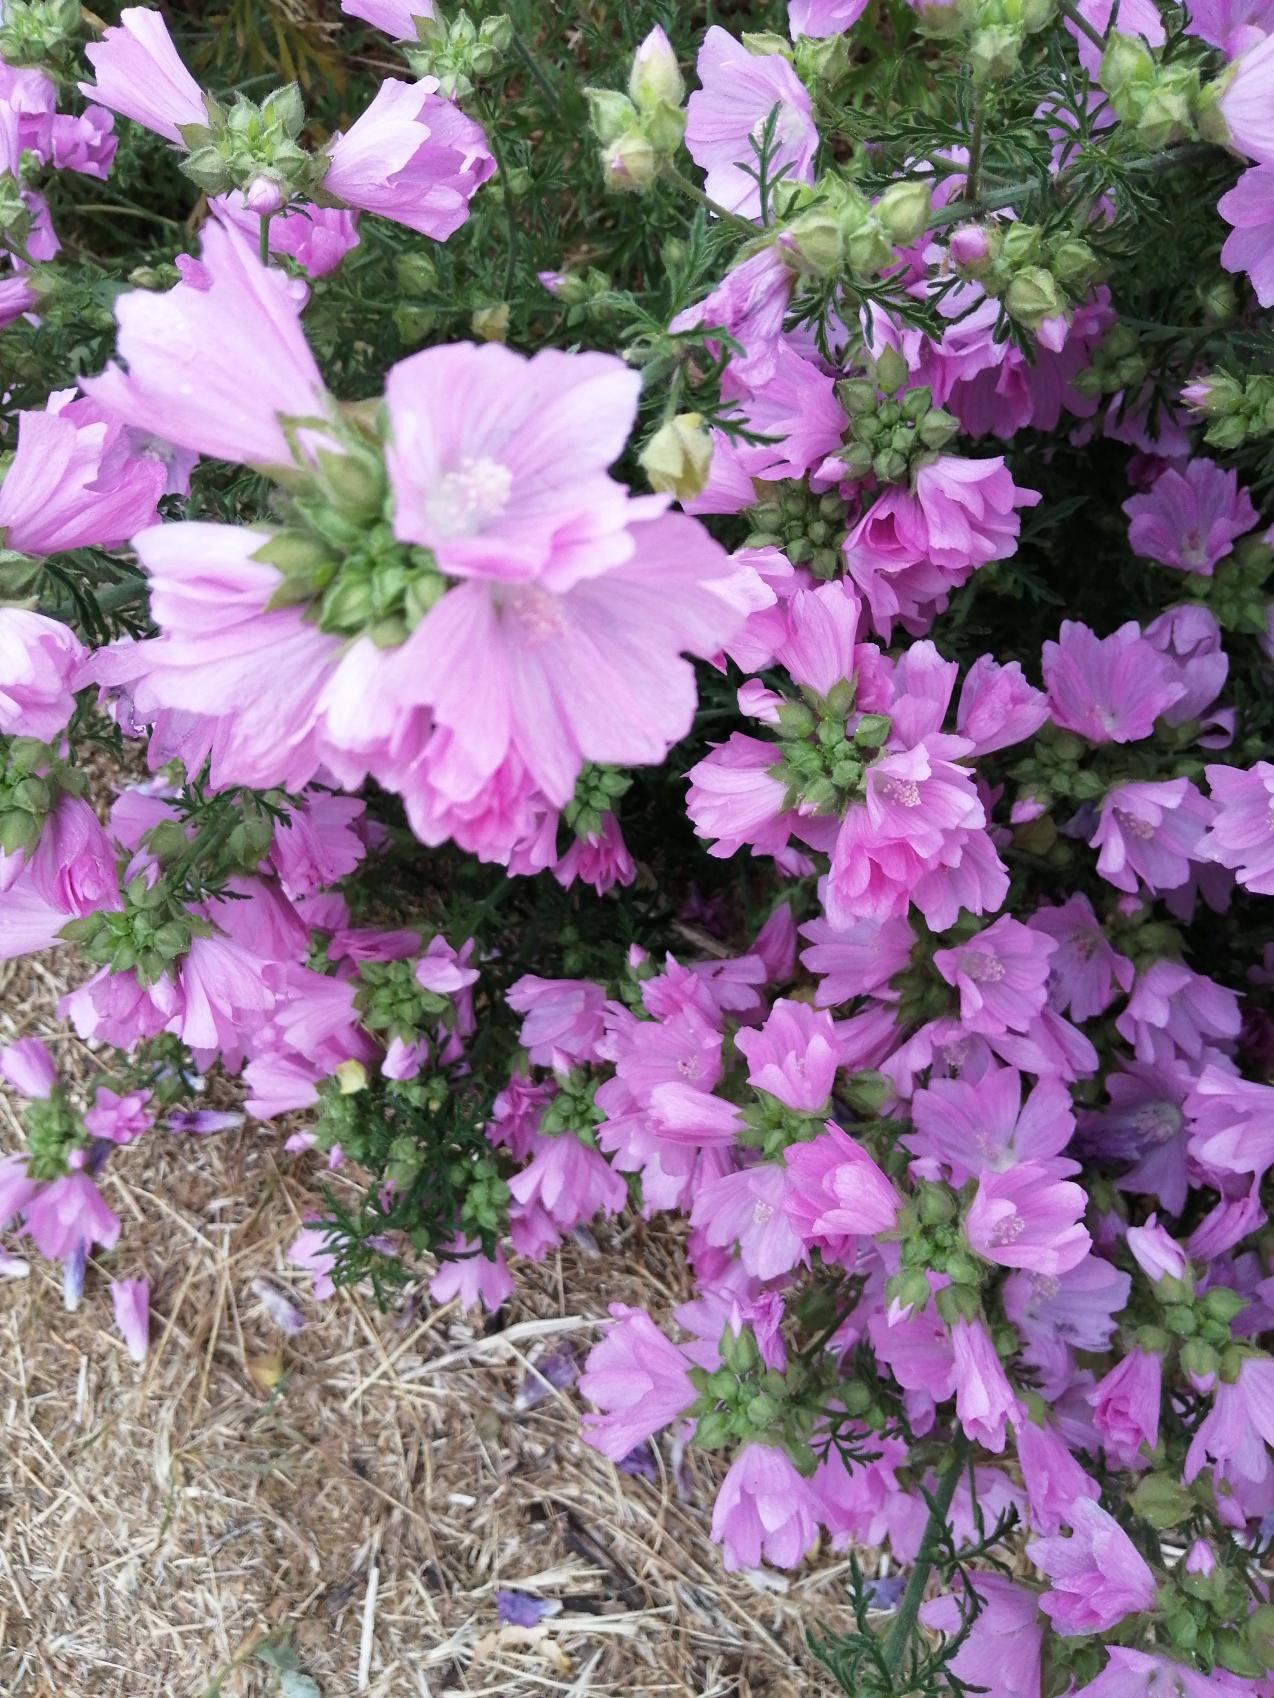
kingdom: Plantae
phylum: Tracheophyta
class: Magnoliopsida
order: Malvales
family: Malvaceae
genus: Malva
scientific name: Malva alcea
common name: Rosen-katost
